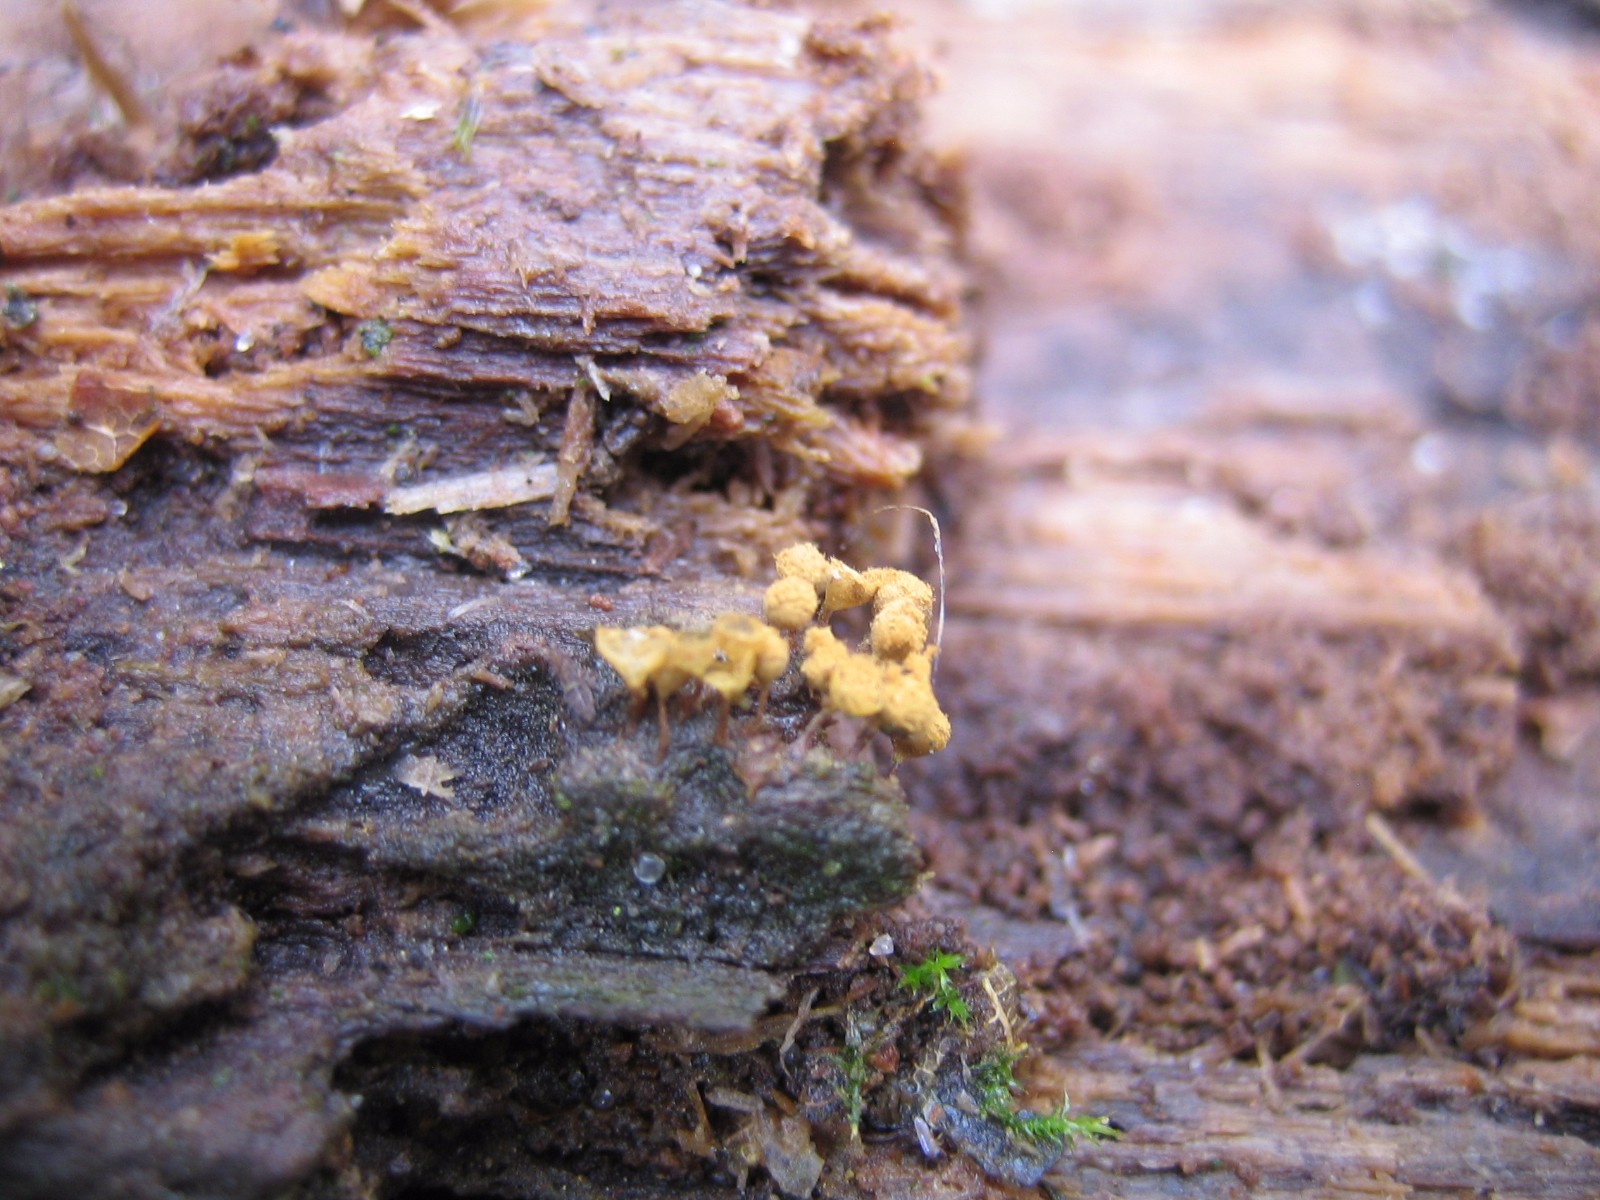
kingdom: Protozoa
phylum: Mycetozoa
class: Myxomycetes
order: Trichiales
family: Trichiaceae
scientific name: Trichiaceae
